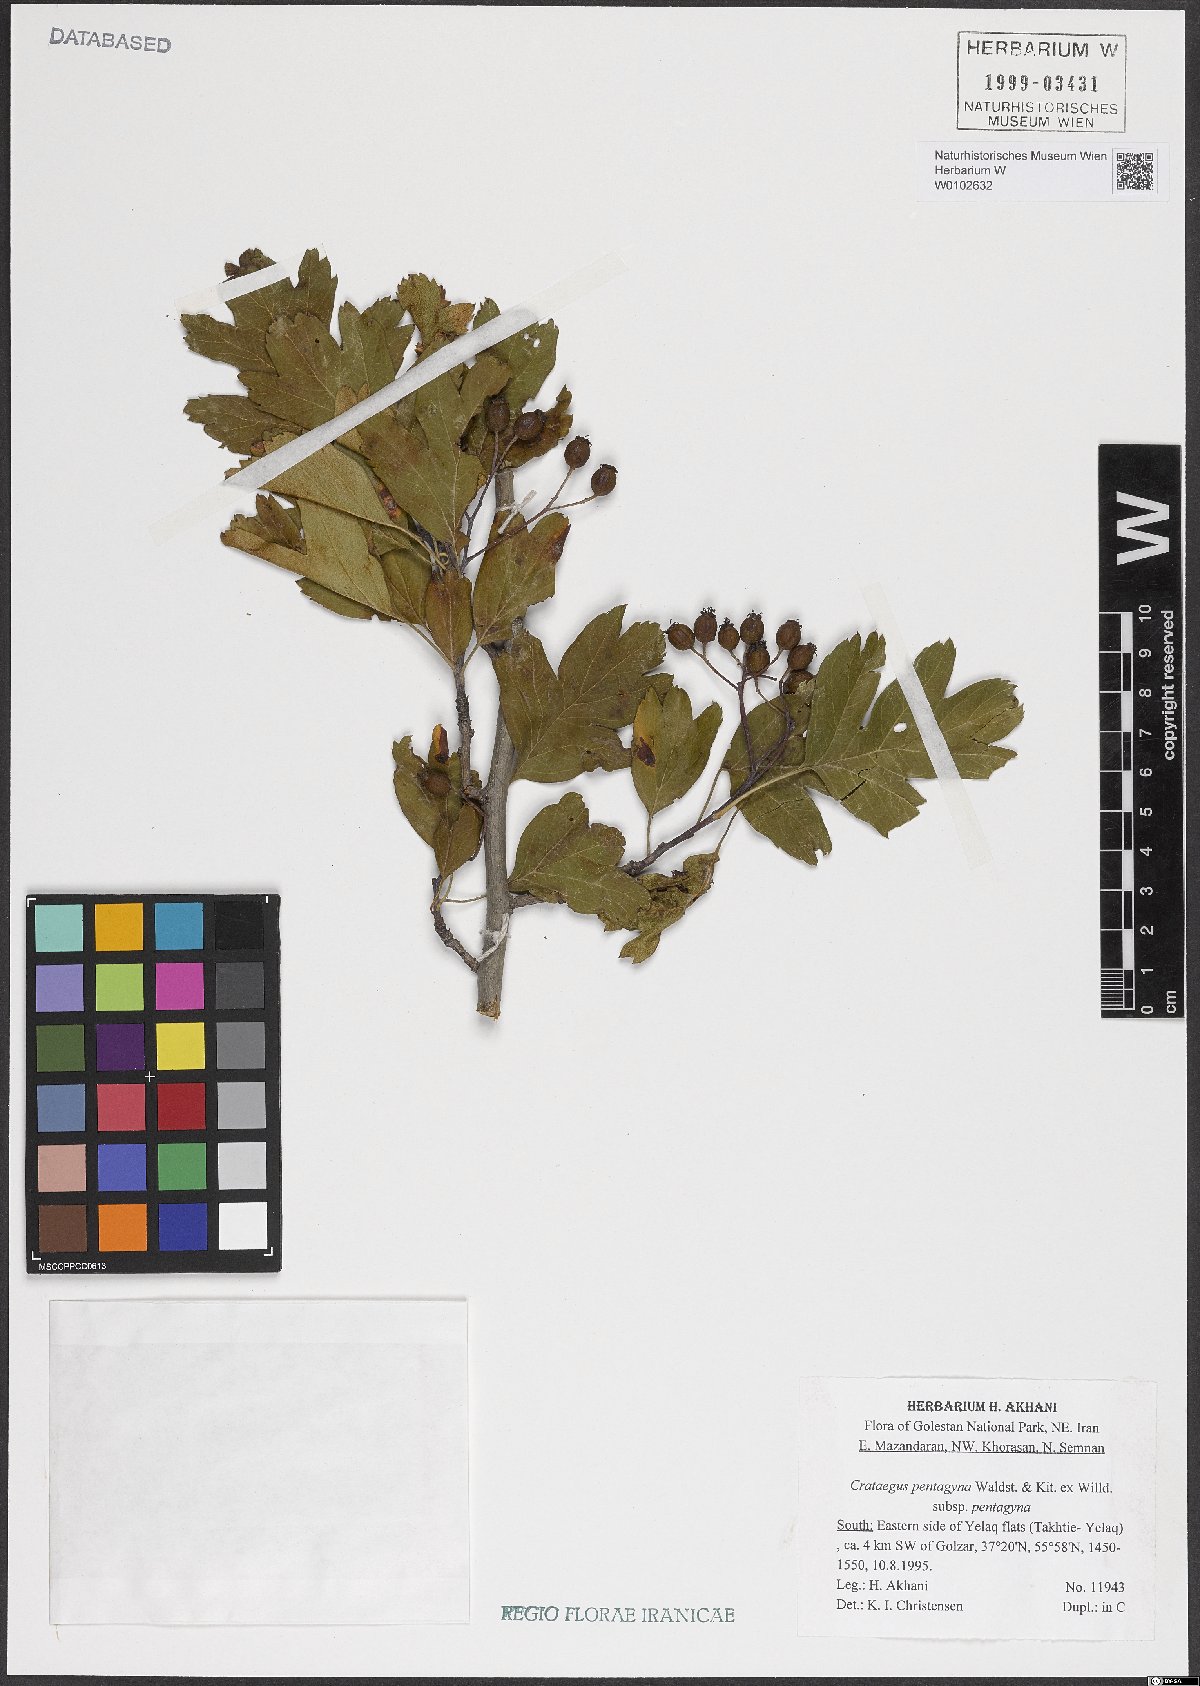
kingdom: Plantae
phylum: Tracheophyta
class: Magnoliopsida
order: Rosales
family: Rosaceae
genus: Crataegus
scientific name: Crataegus pentagyna
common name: Small-flowered black hawthorn
